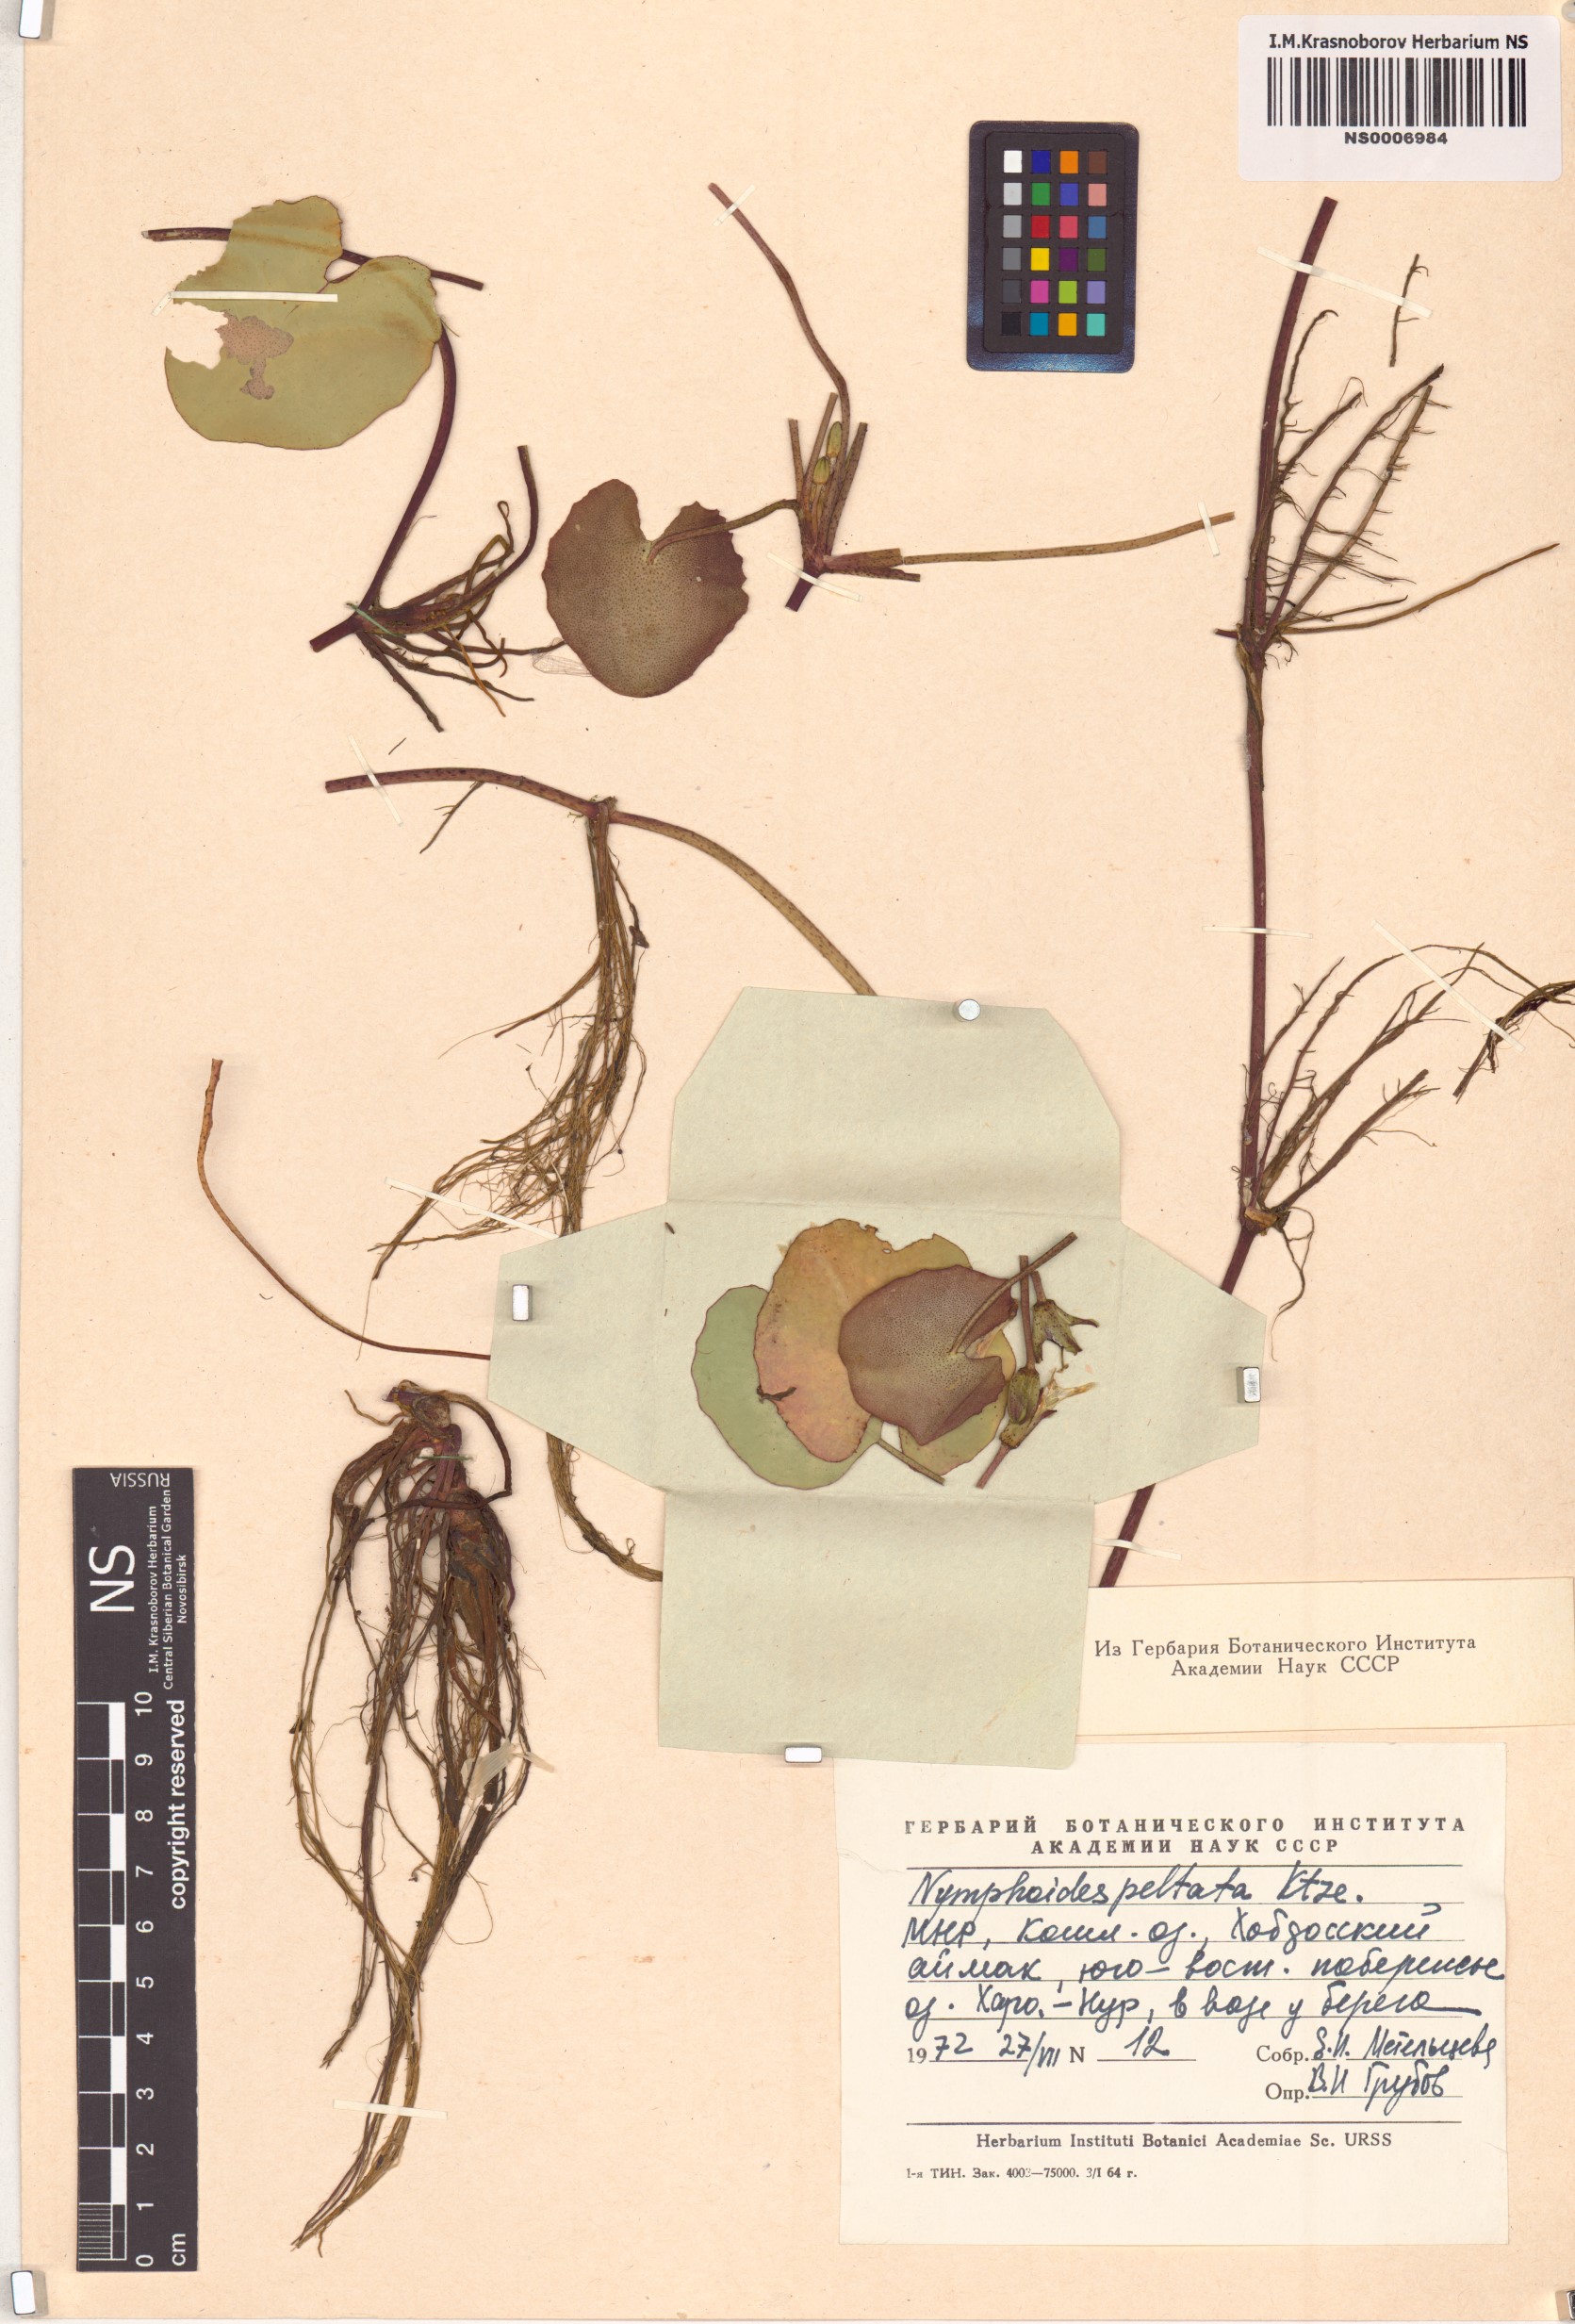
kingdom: Plantae
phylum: Tracheophyta
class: Magnoliopsida
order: Asterales
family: Menyanthaceae
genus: Nymphoides
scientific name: Nymphoides peltata
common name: Fringed water-lily
